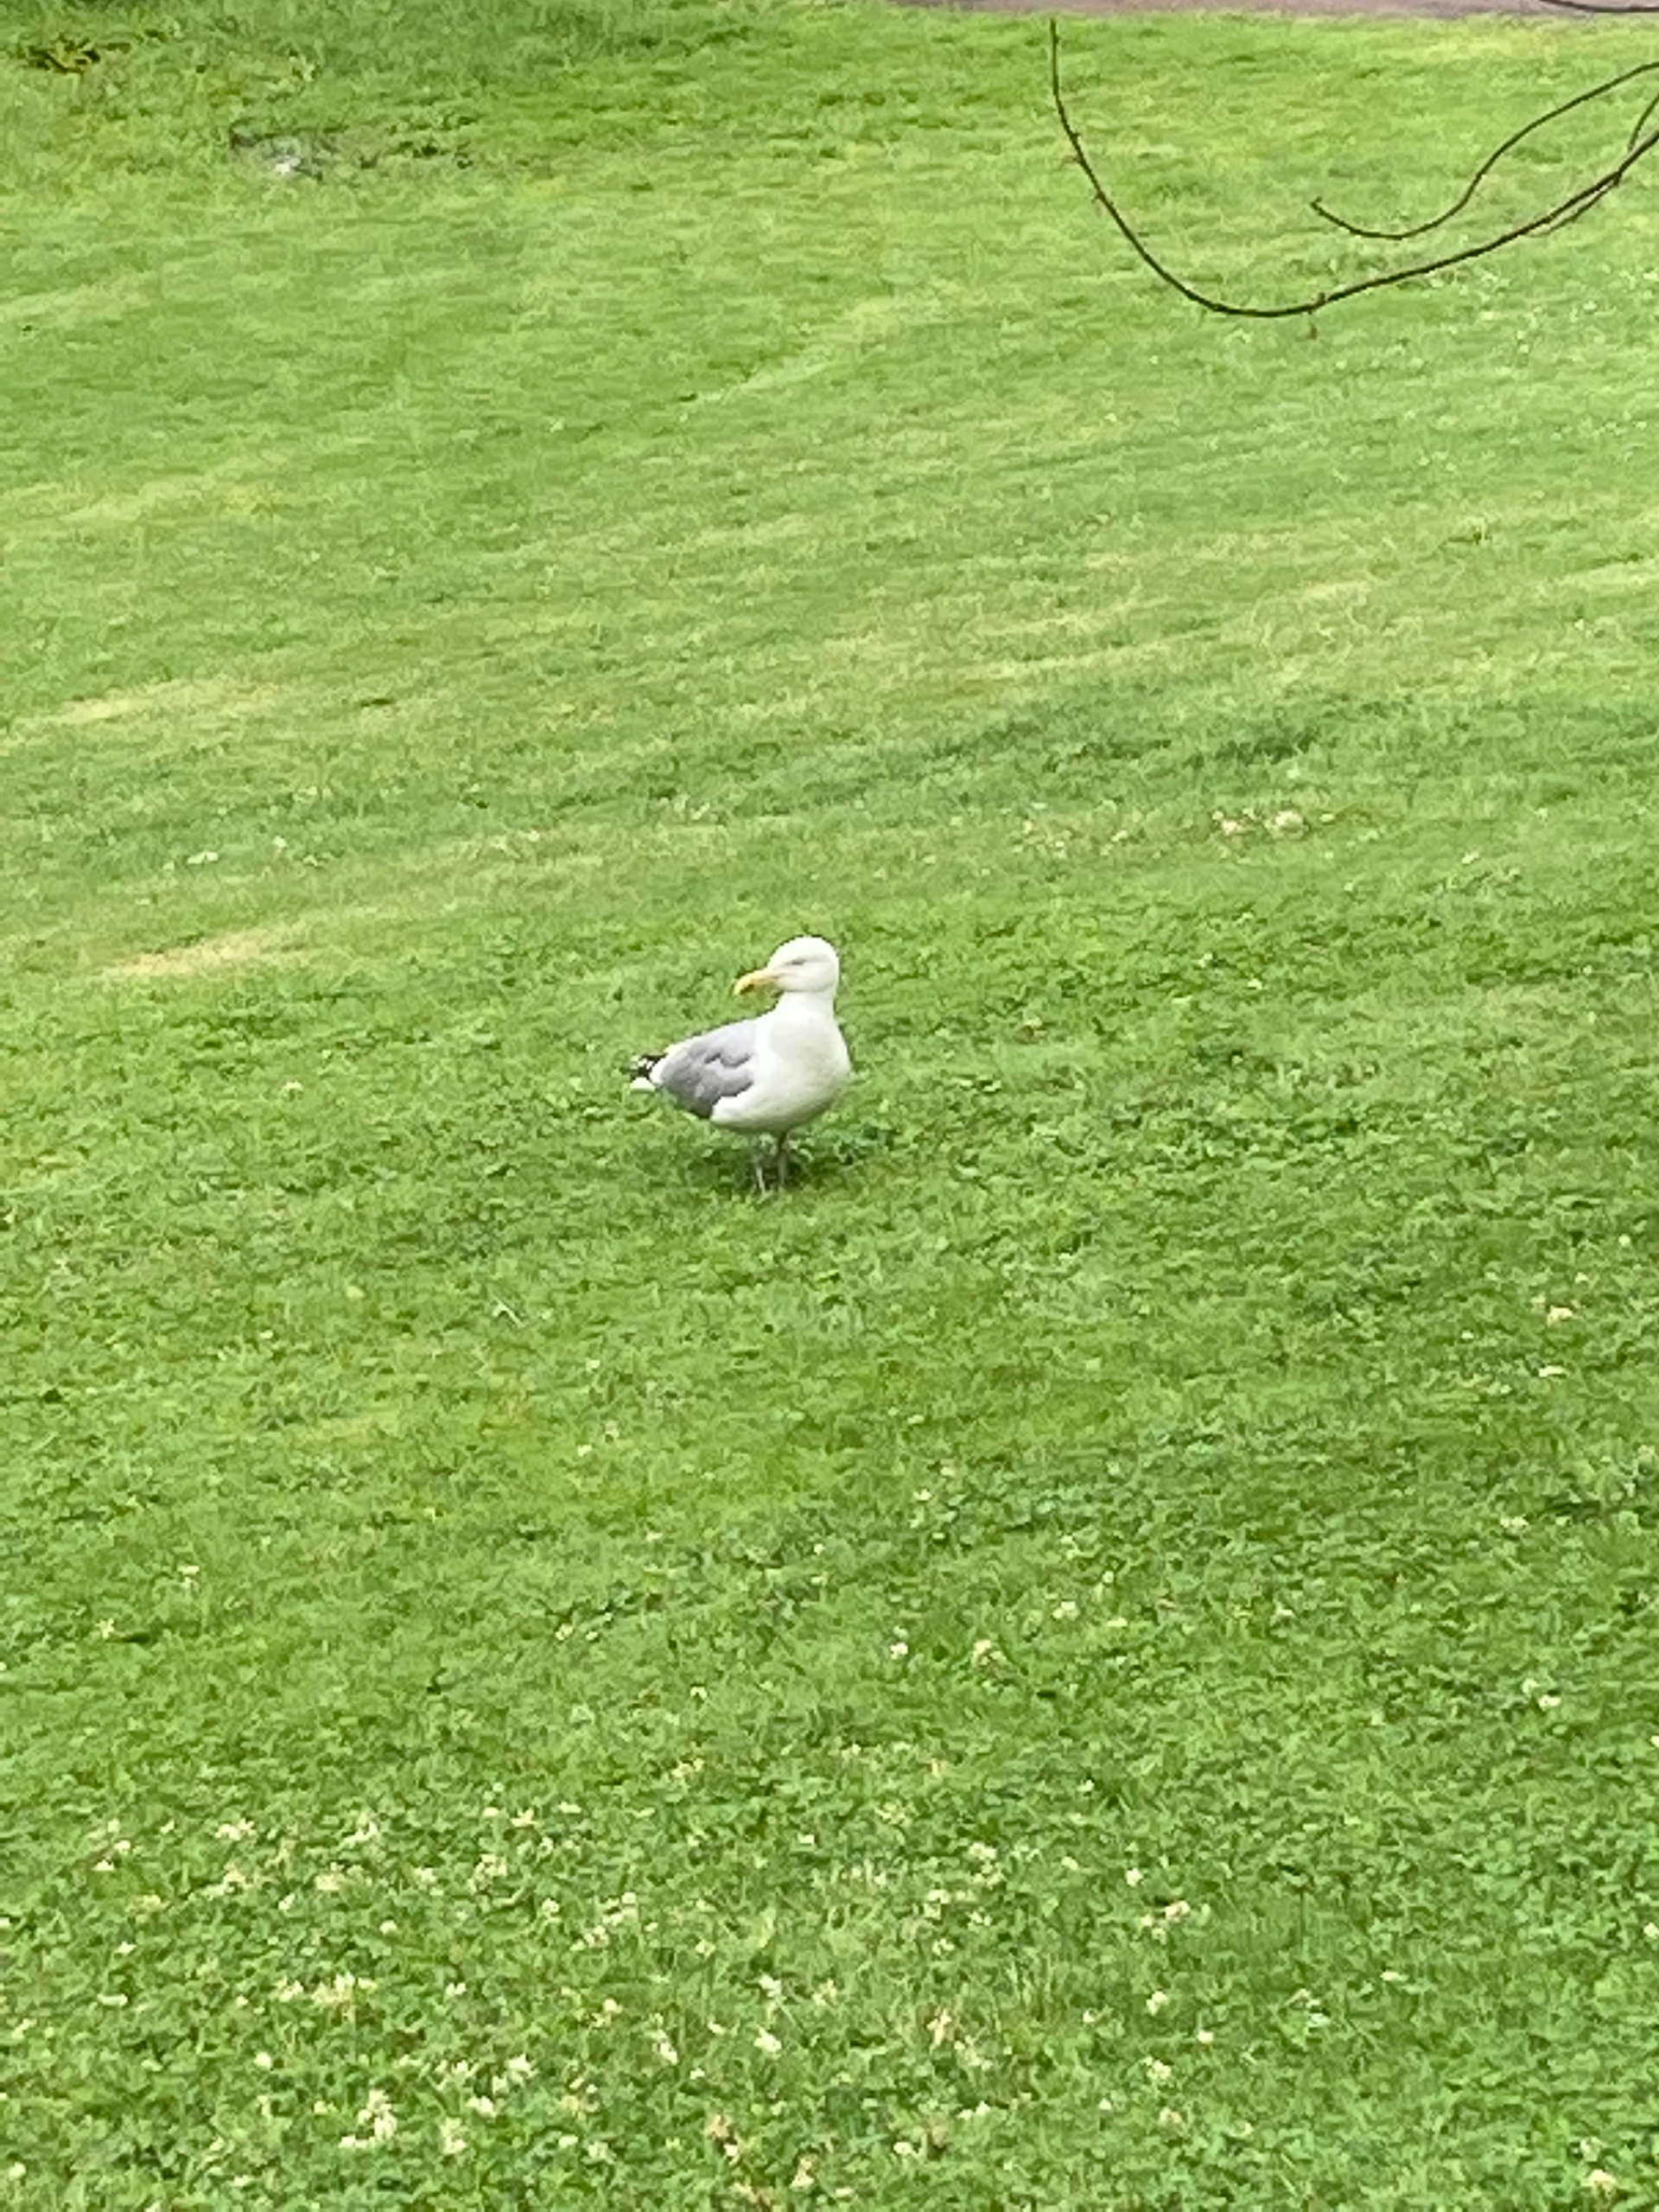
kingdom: Animalia
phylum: Chordata
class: Aves
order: Charadriiformes
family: Laridae
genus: Larus
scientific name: Larus argentatus
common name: Sølvmåge
